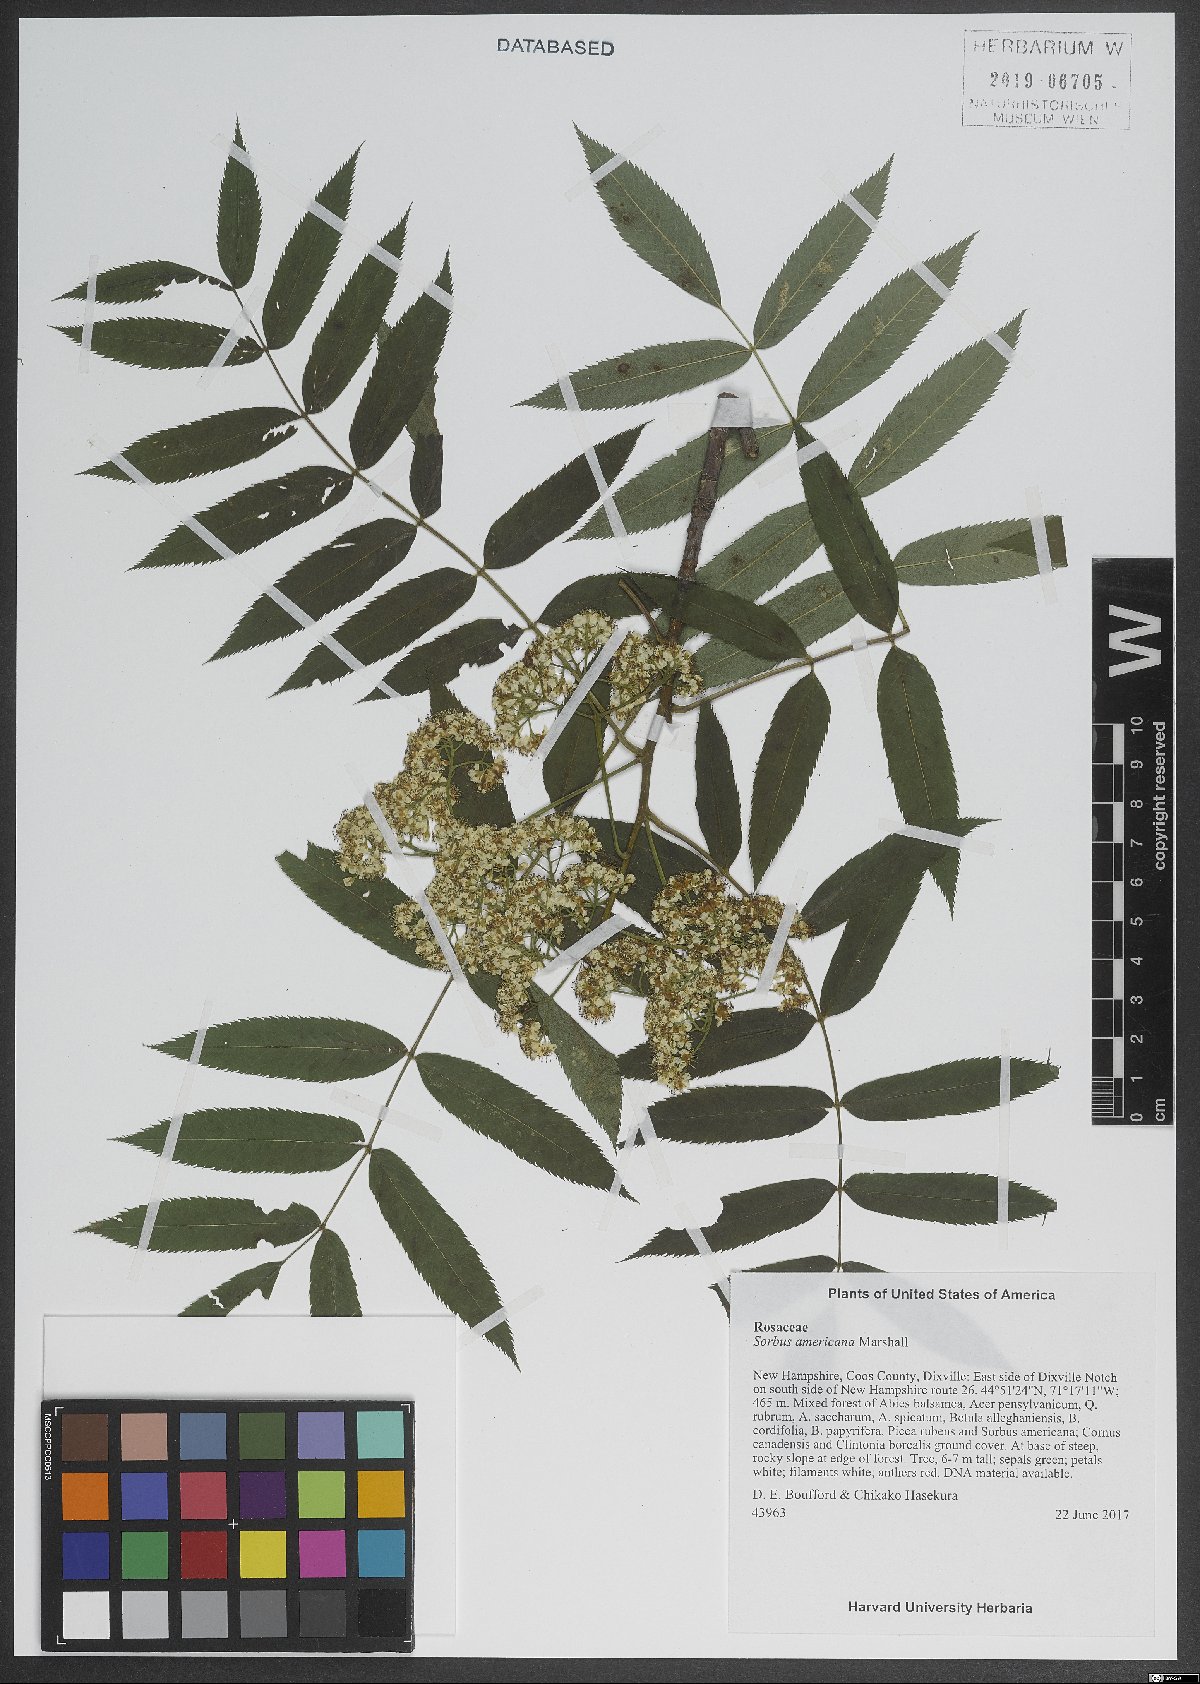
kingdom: Plantae
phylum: Tracheophyta
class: Magnoliopsida
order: Rosales
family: Rosaceae
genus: Sorbus
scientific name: Sorbus americana
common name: American mountain-ash
